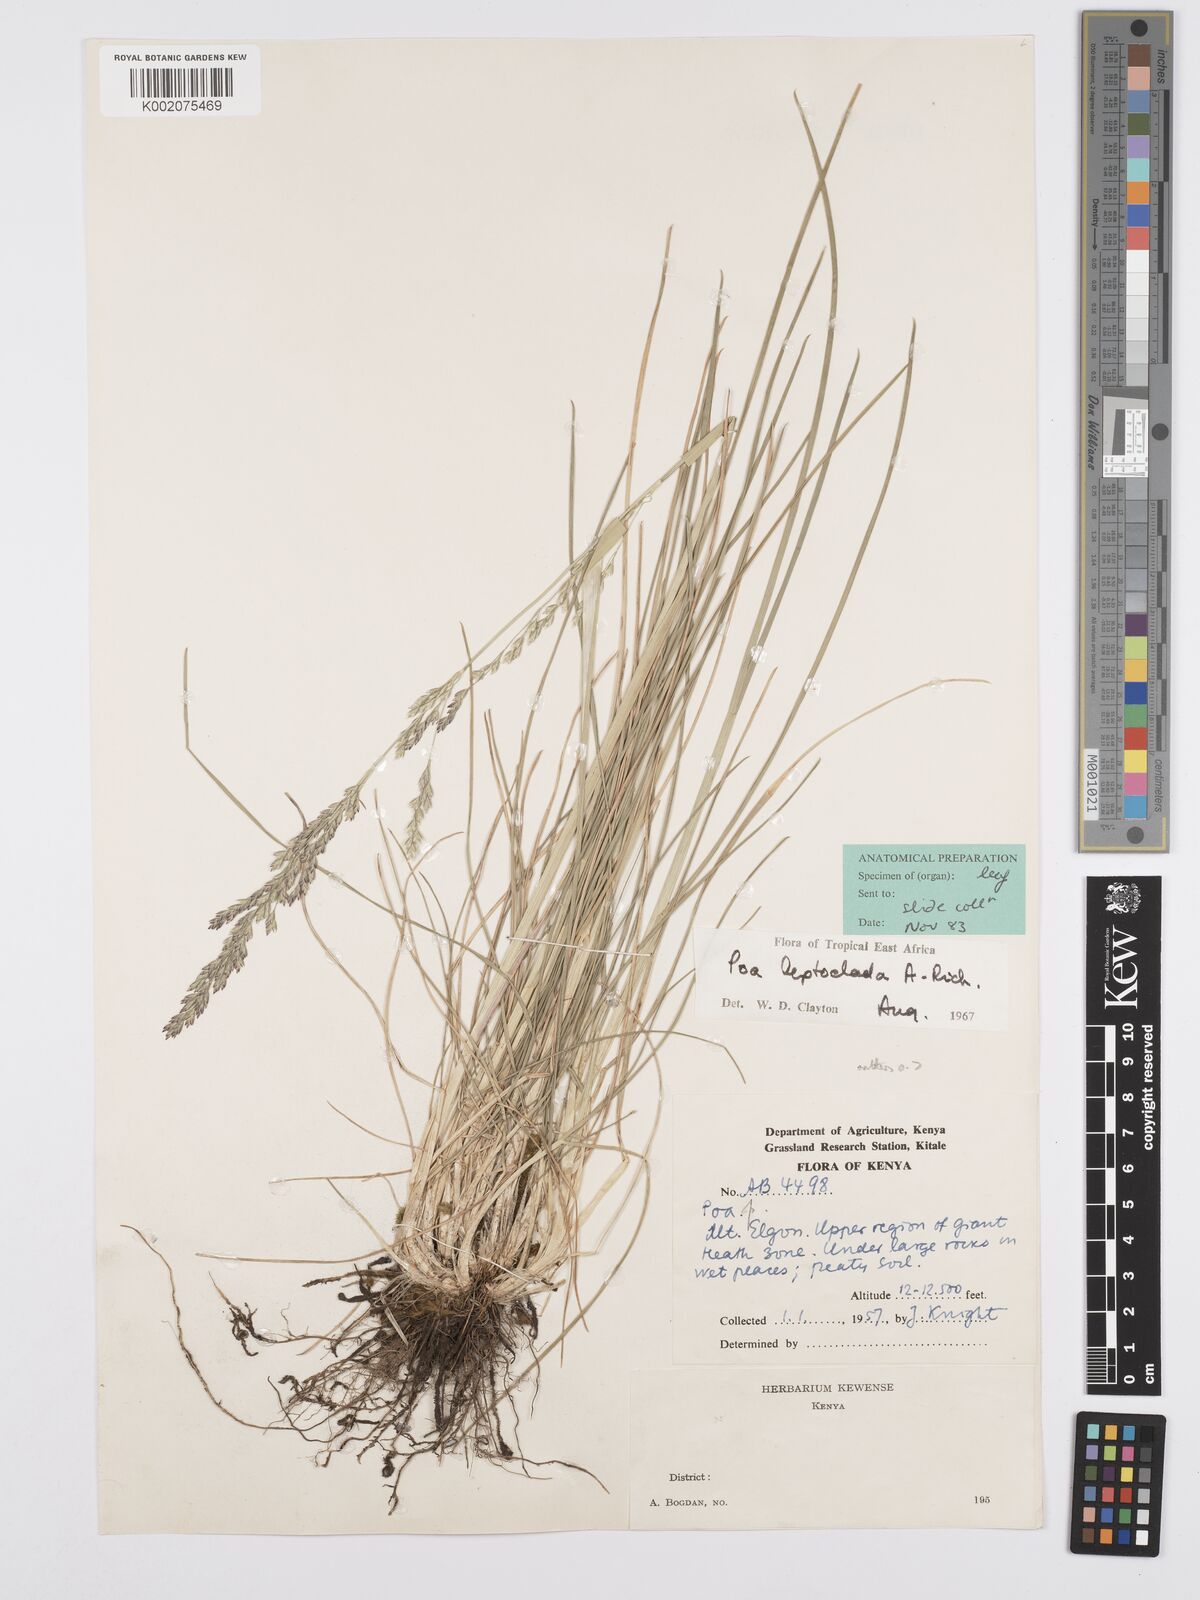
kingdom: Plantae
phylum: Tracheophyta
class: Liliopsida
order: Poales
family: Poaceae
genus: Poa
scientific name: Poa leptoclada
